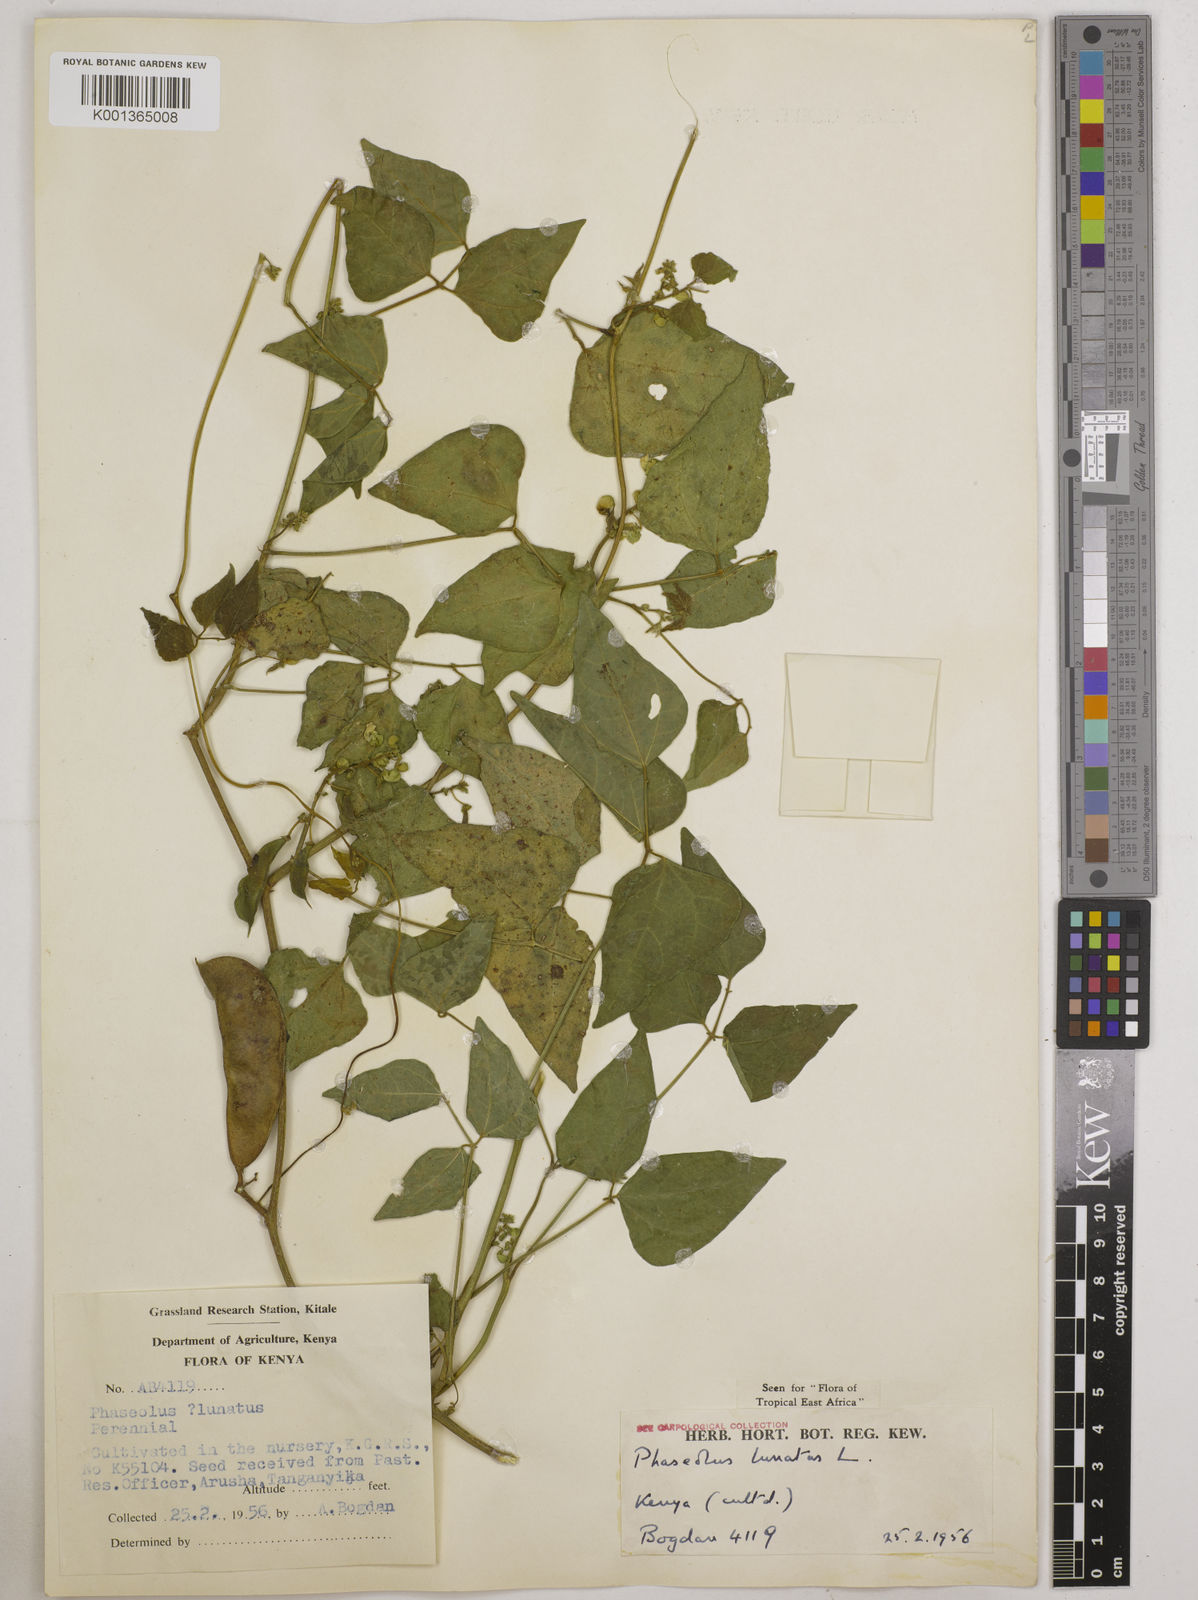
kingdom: Plantae
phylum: Tracheophyta
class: Magnoliopsida
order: Fabales
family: Fabaceae
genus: Phaseolus
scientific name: Phaseolus lunatus
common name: Sieva bean
